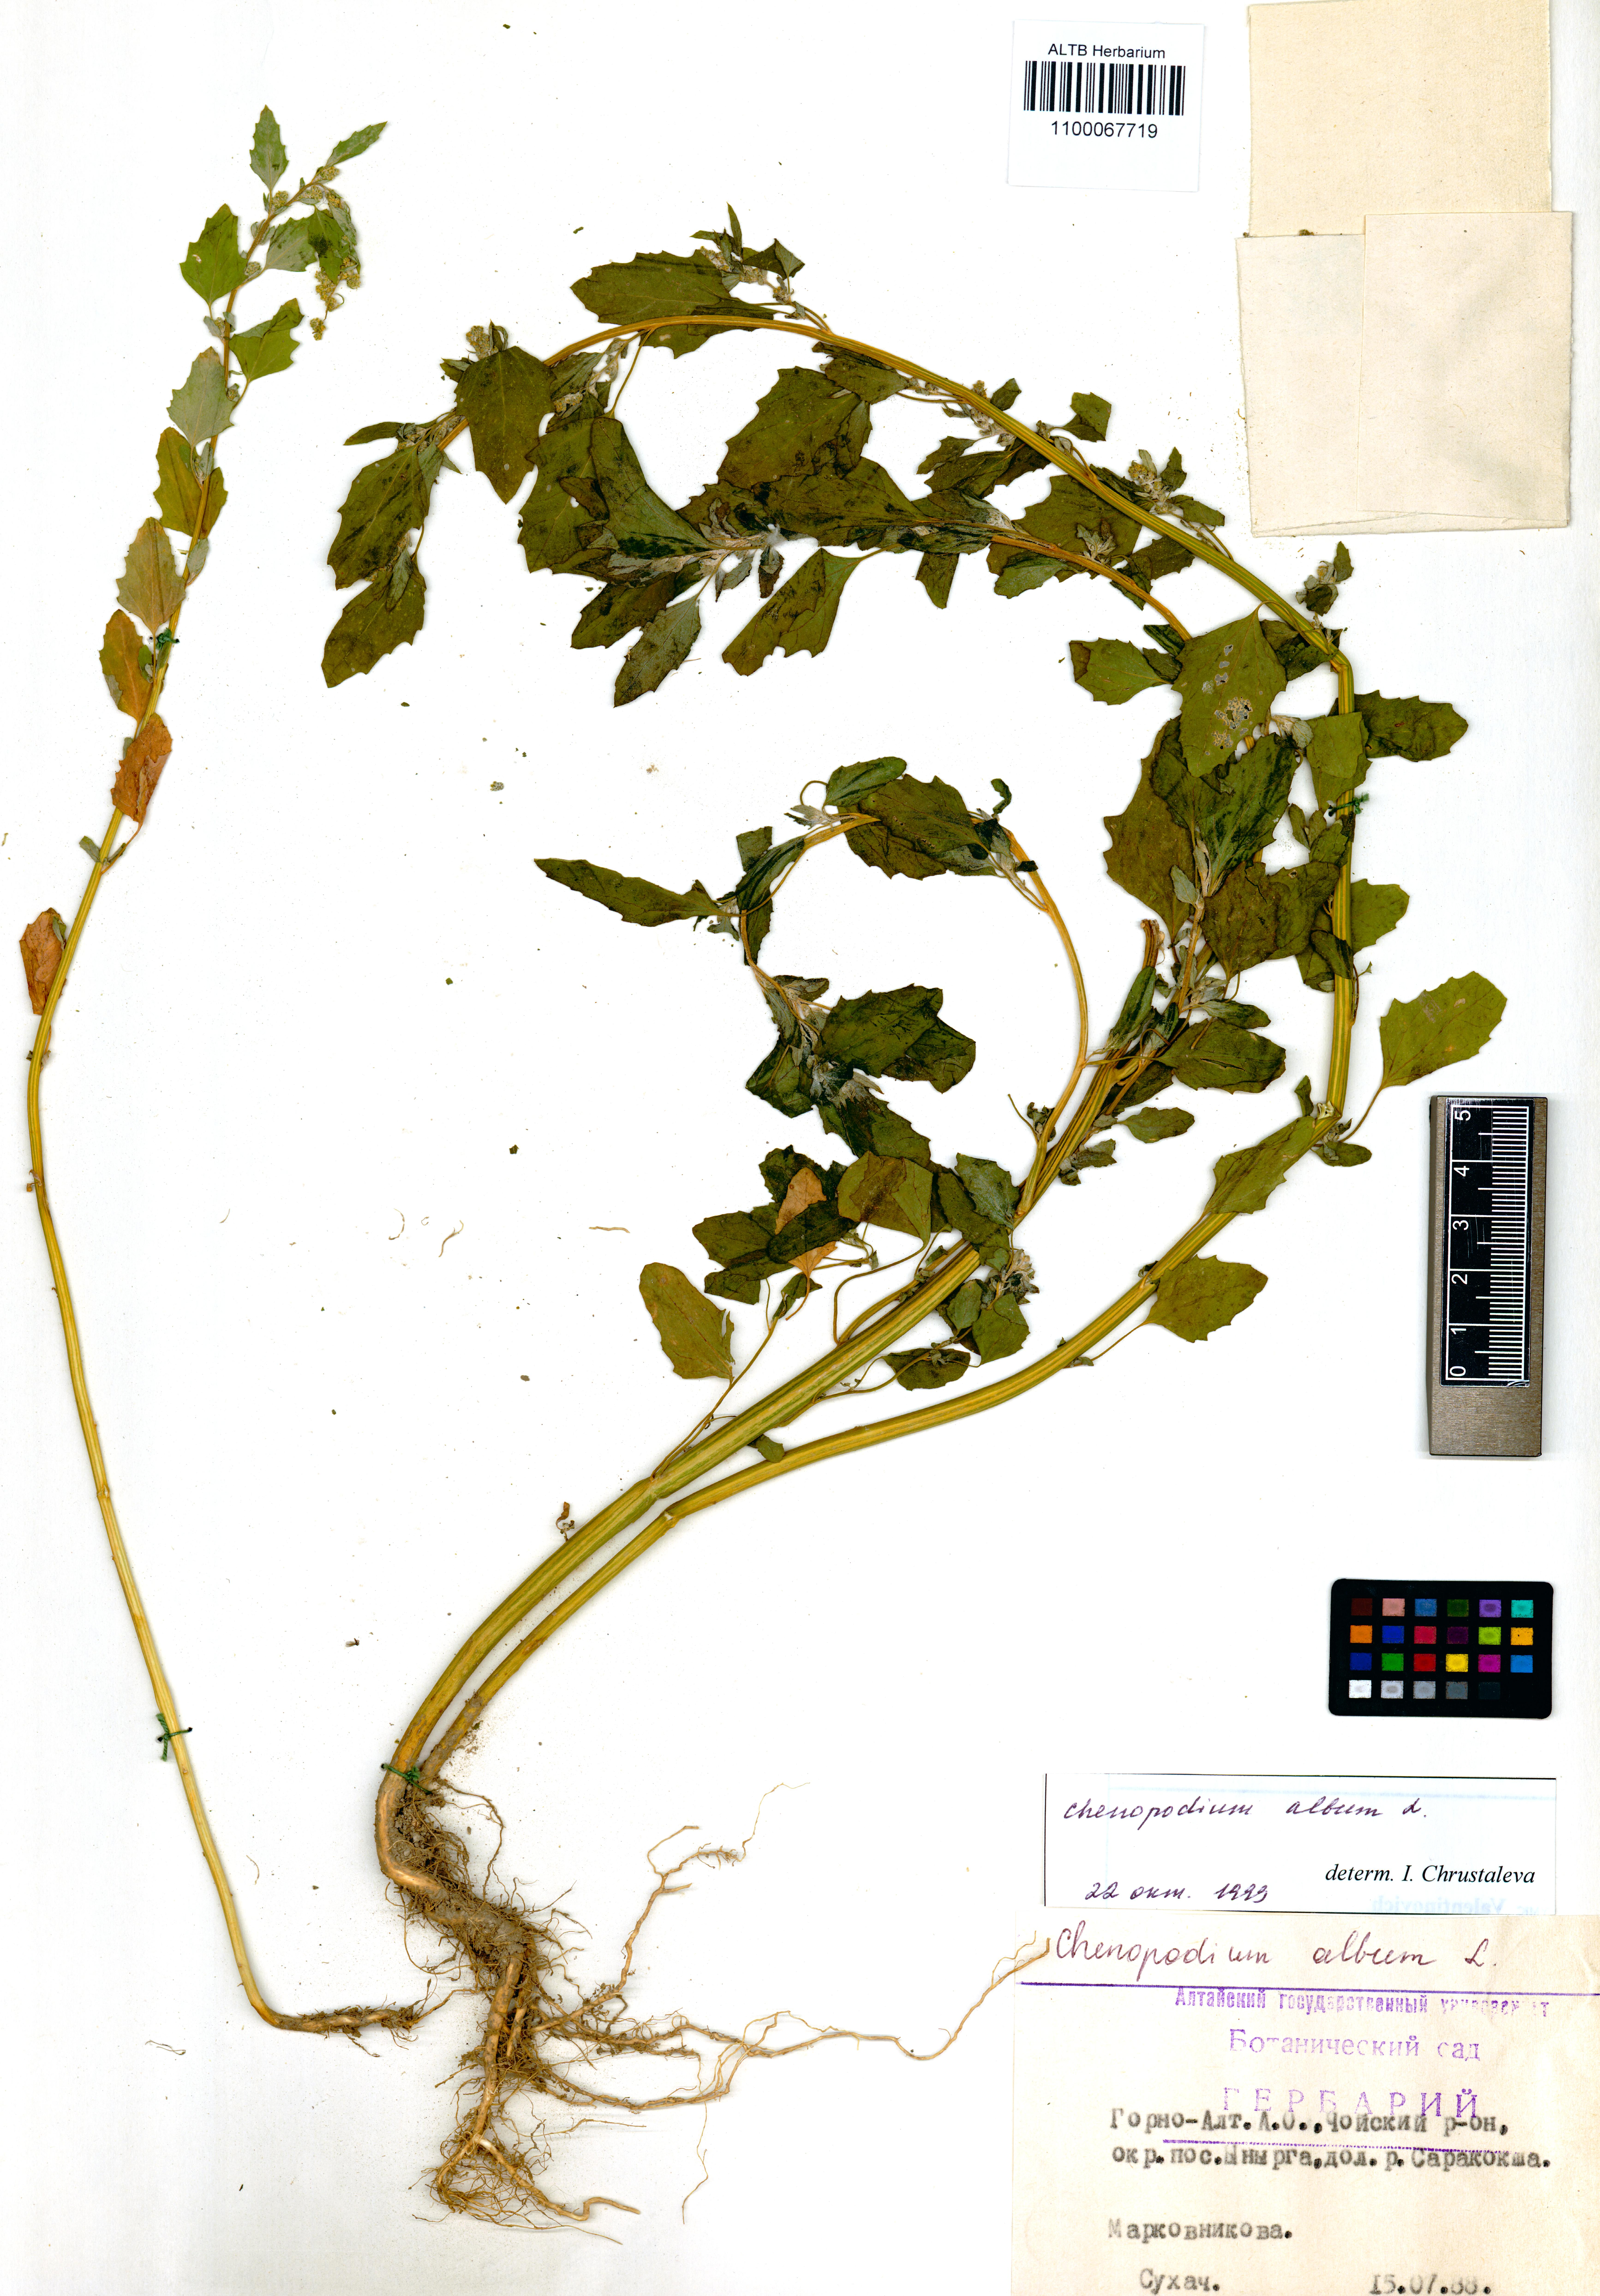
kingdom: Plantae
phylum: Tracheophyta
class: Magnoliopsida
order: Caryophyllales
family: Amaranthaceae
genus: Chenopodium
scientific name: Chenopodium album
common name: Fat-hen
